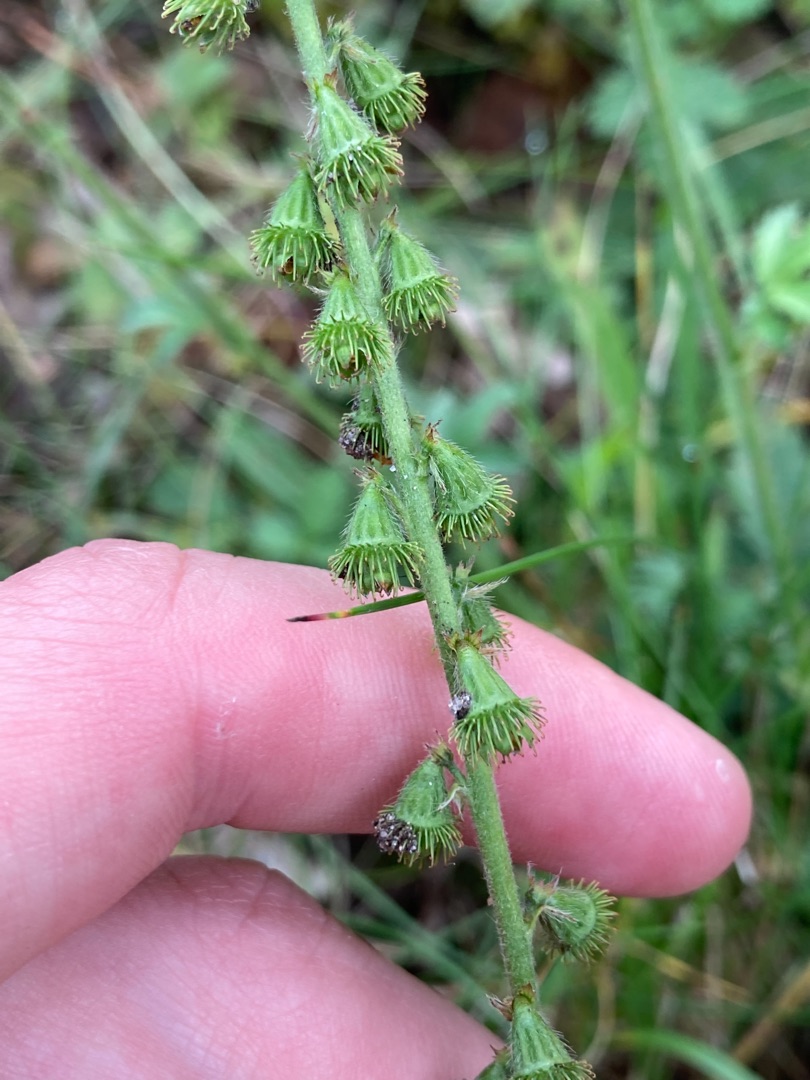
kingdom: Plantae
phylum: Tracheophyta
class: Magnoliopsida
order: Rosales
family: Rosaceae
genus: Agrimonia
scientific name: Agrimonia eupatoria
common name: Almindelig agermåne
